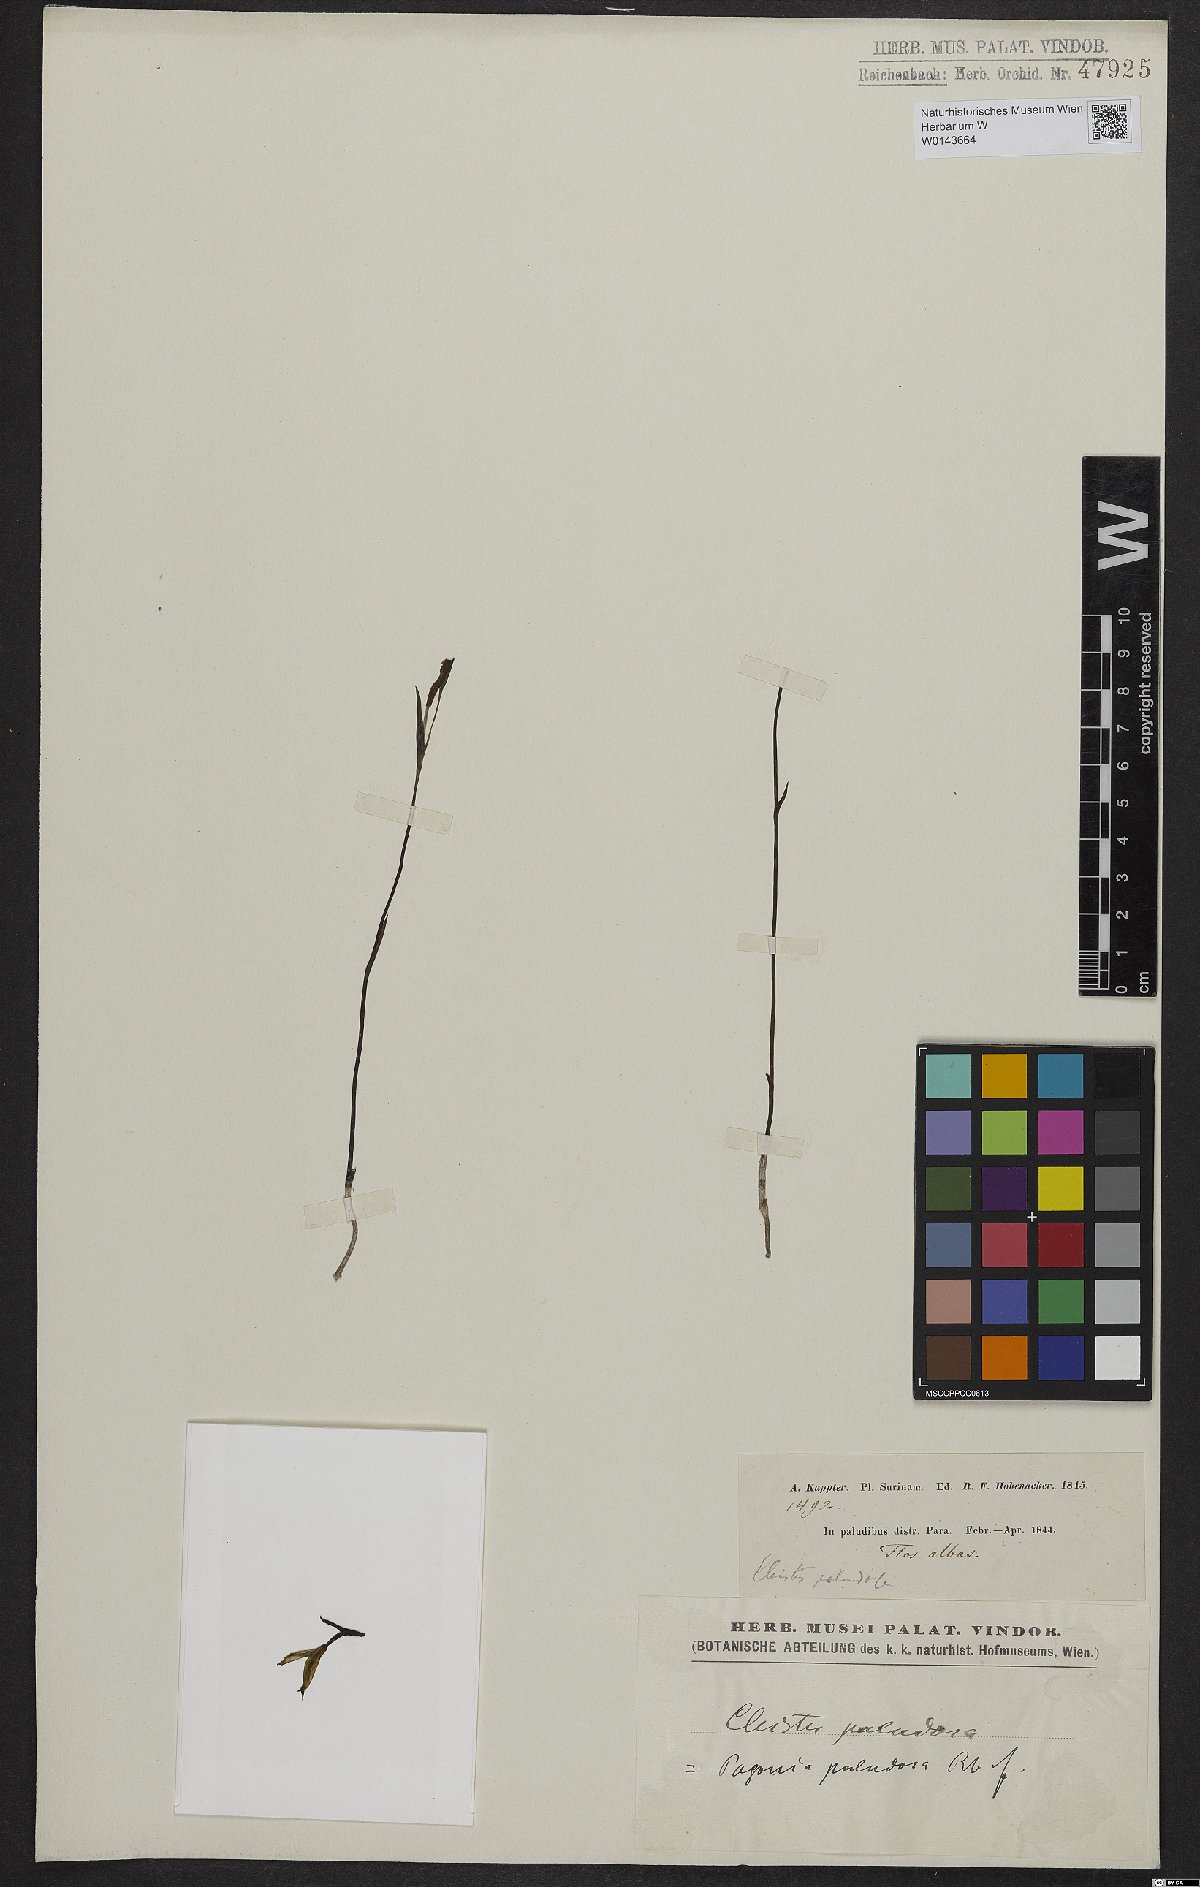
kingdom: Plantae
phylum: Tracheophyta
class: Liliopsida
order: Asparagales
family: Orchidaceae
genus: Cleistes
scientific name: Cleistes paludosa
